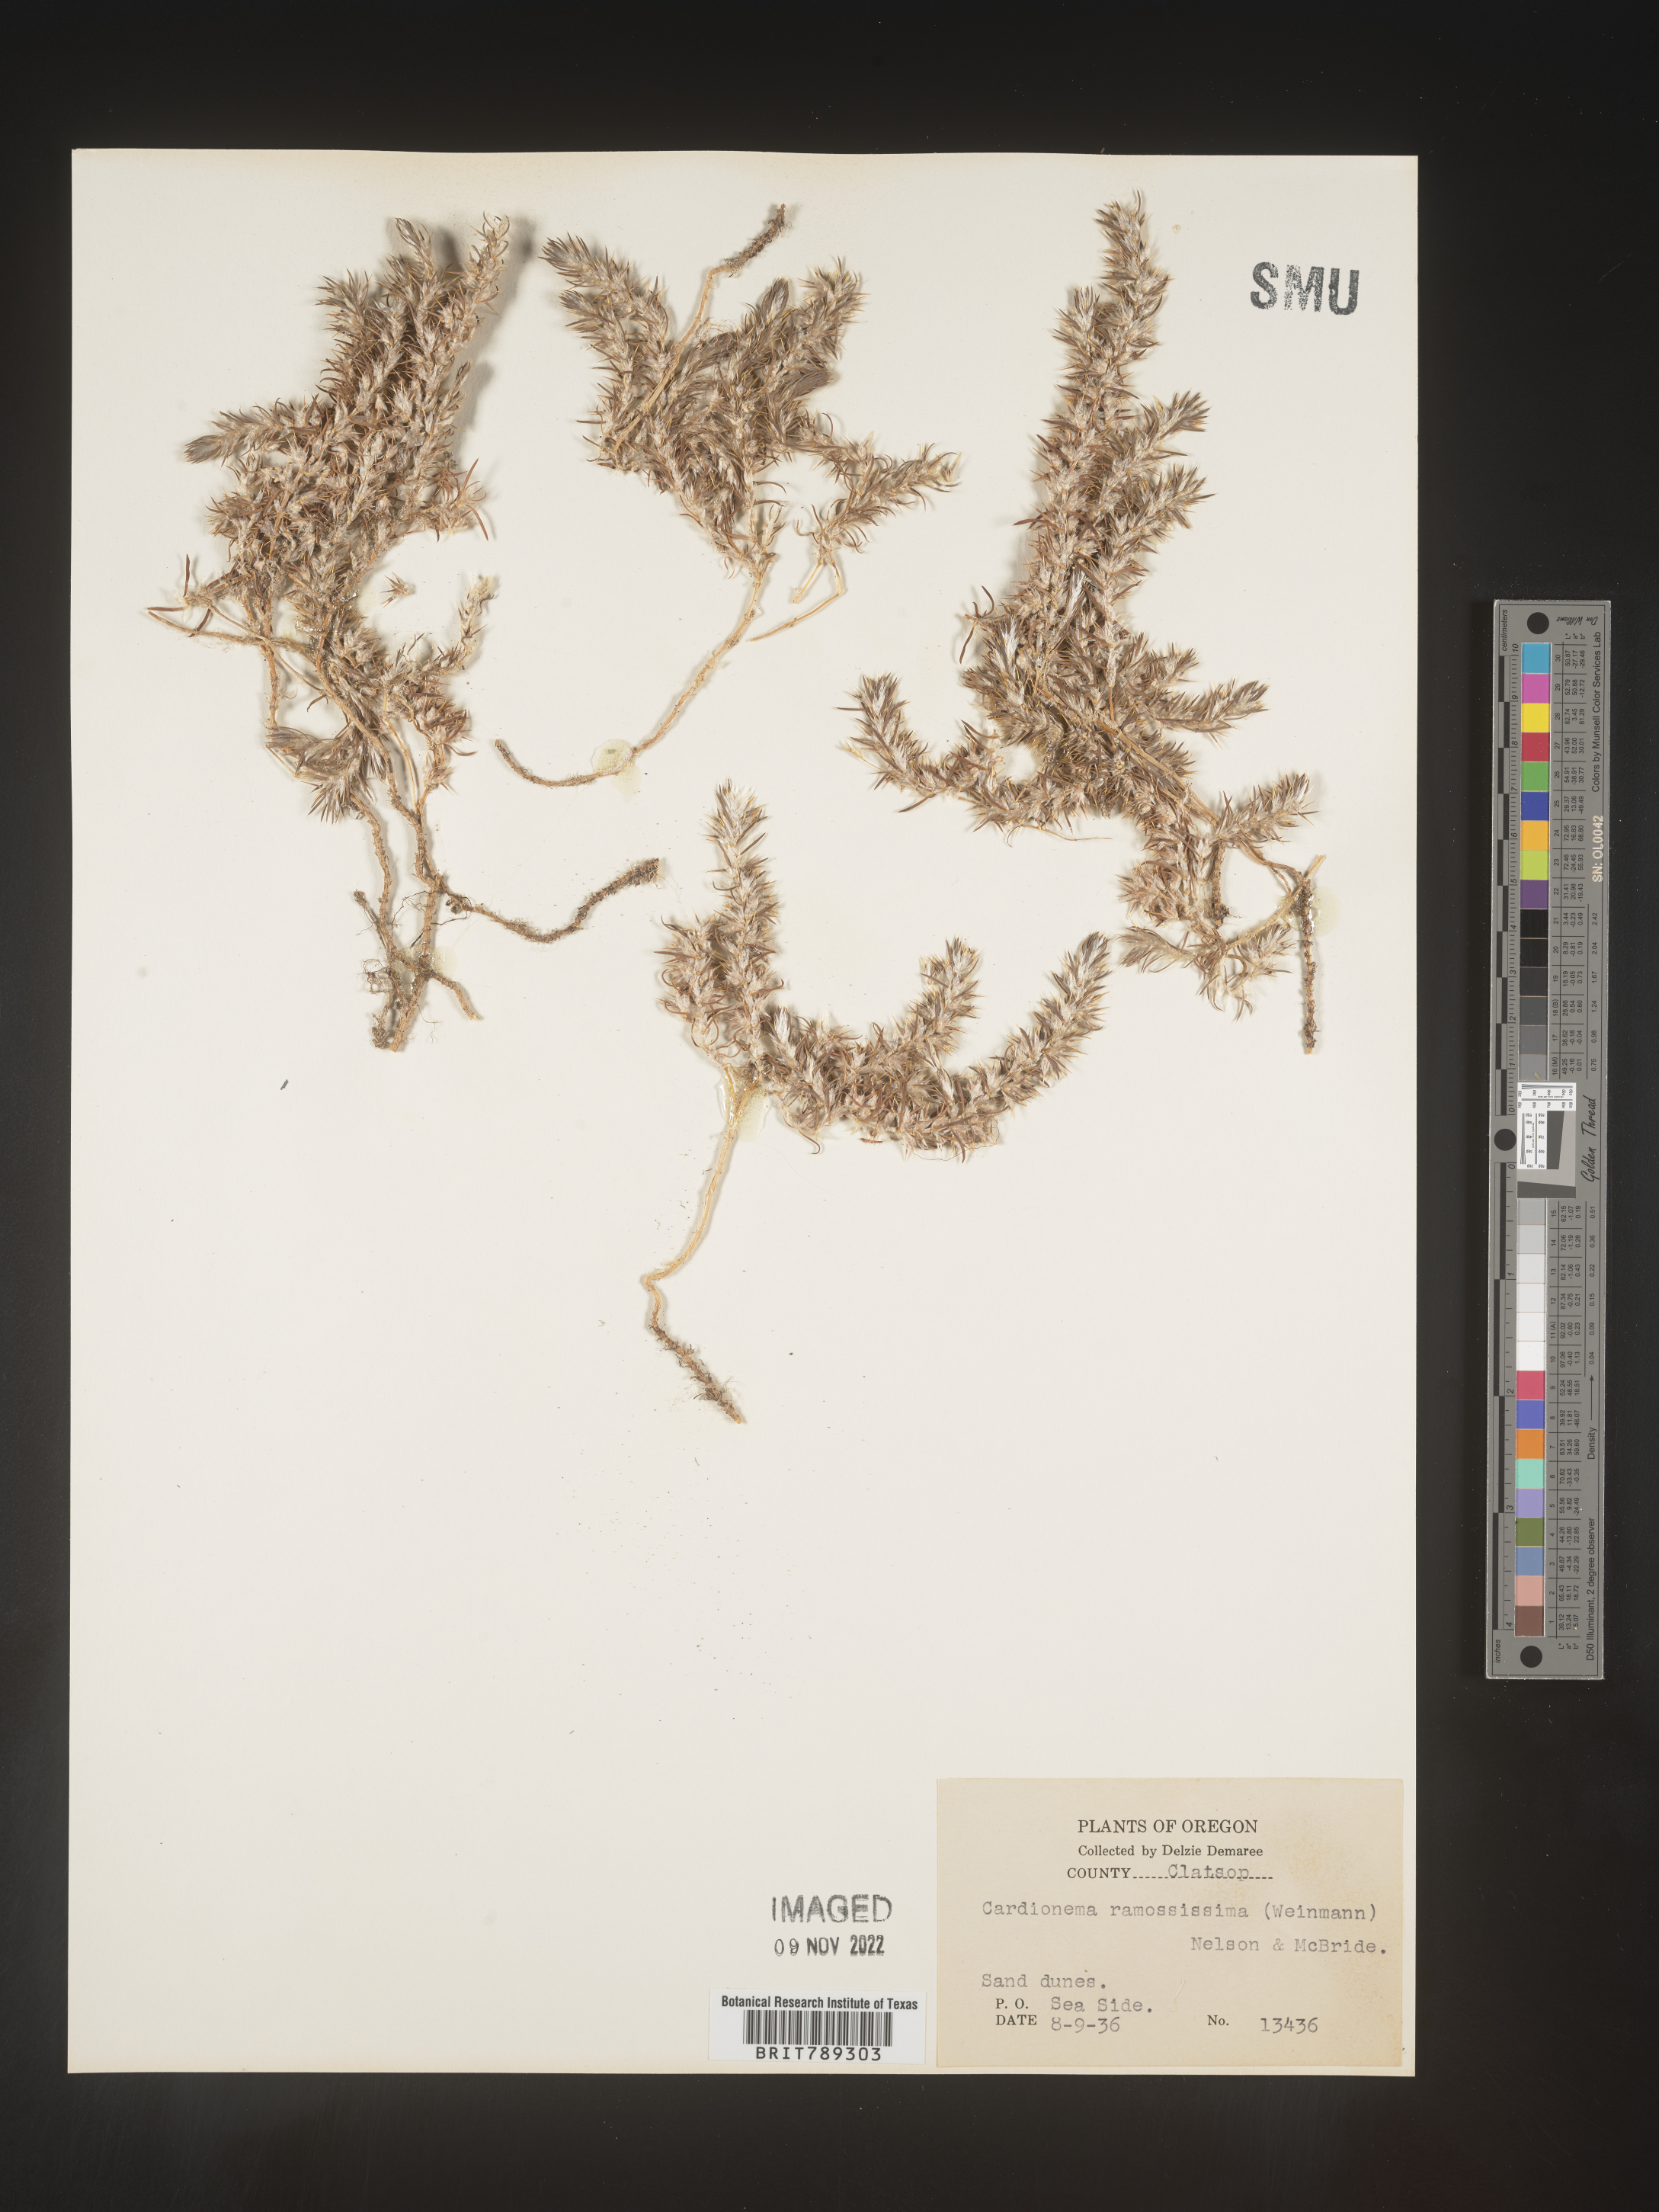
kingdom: Plantae
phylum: Tracheophyta
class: Magnoliopsida
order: Caryophyllales
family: Caryophyllaceae
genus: Cardionema
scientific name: Cardionema
